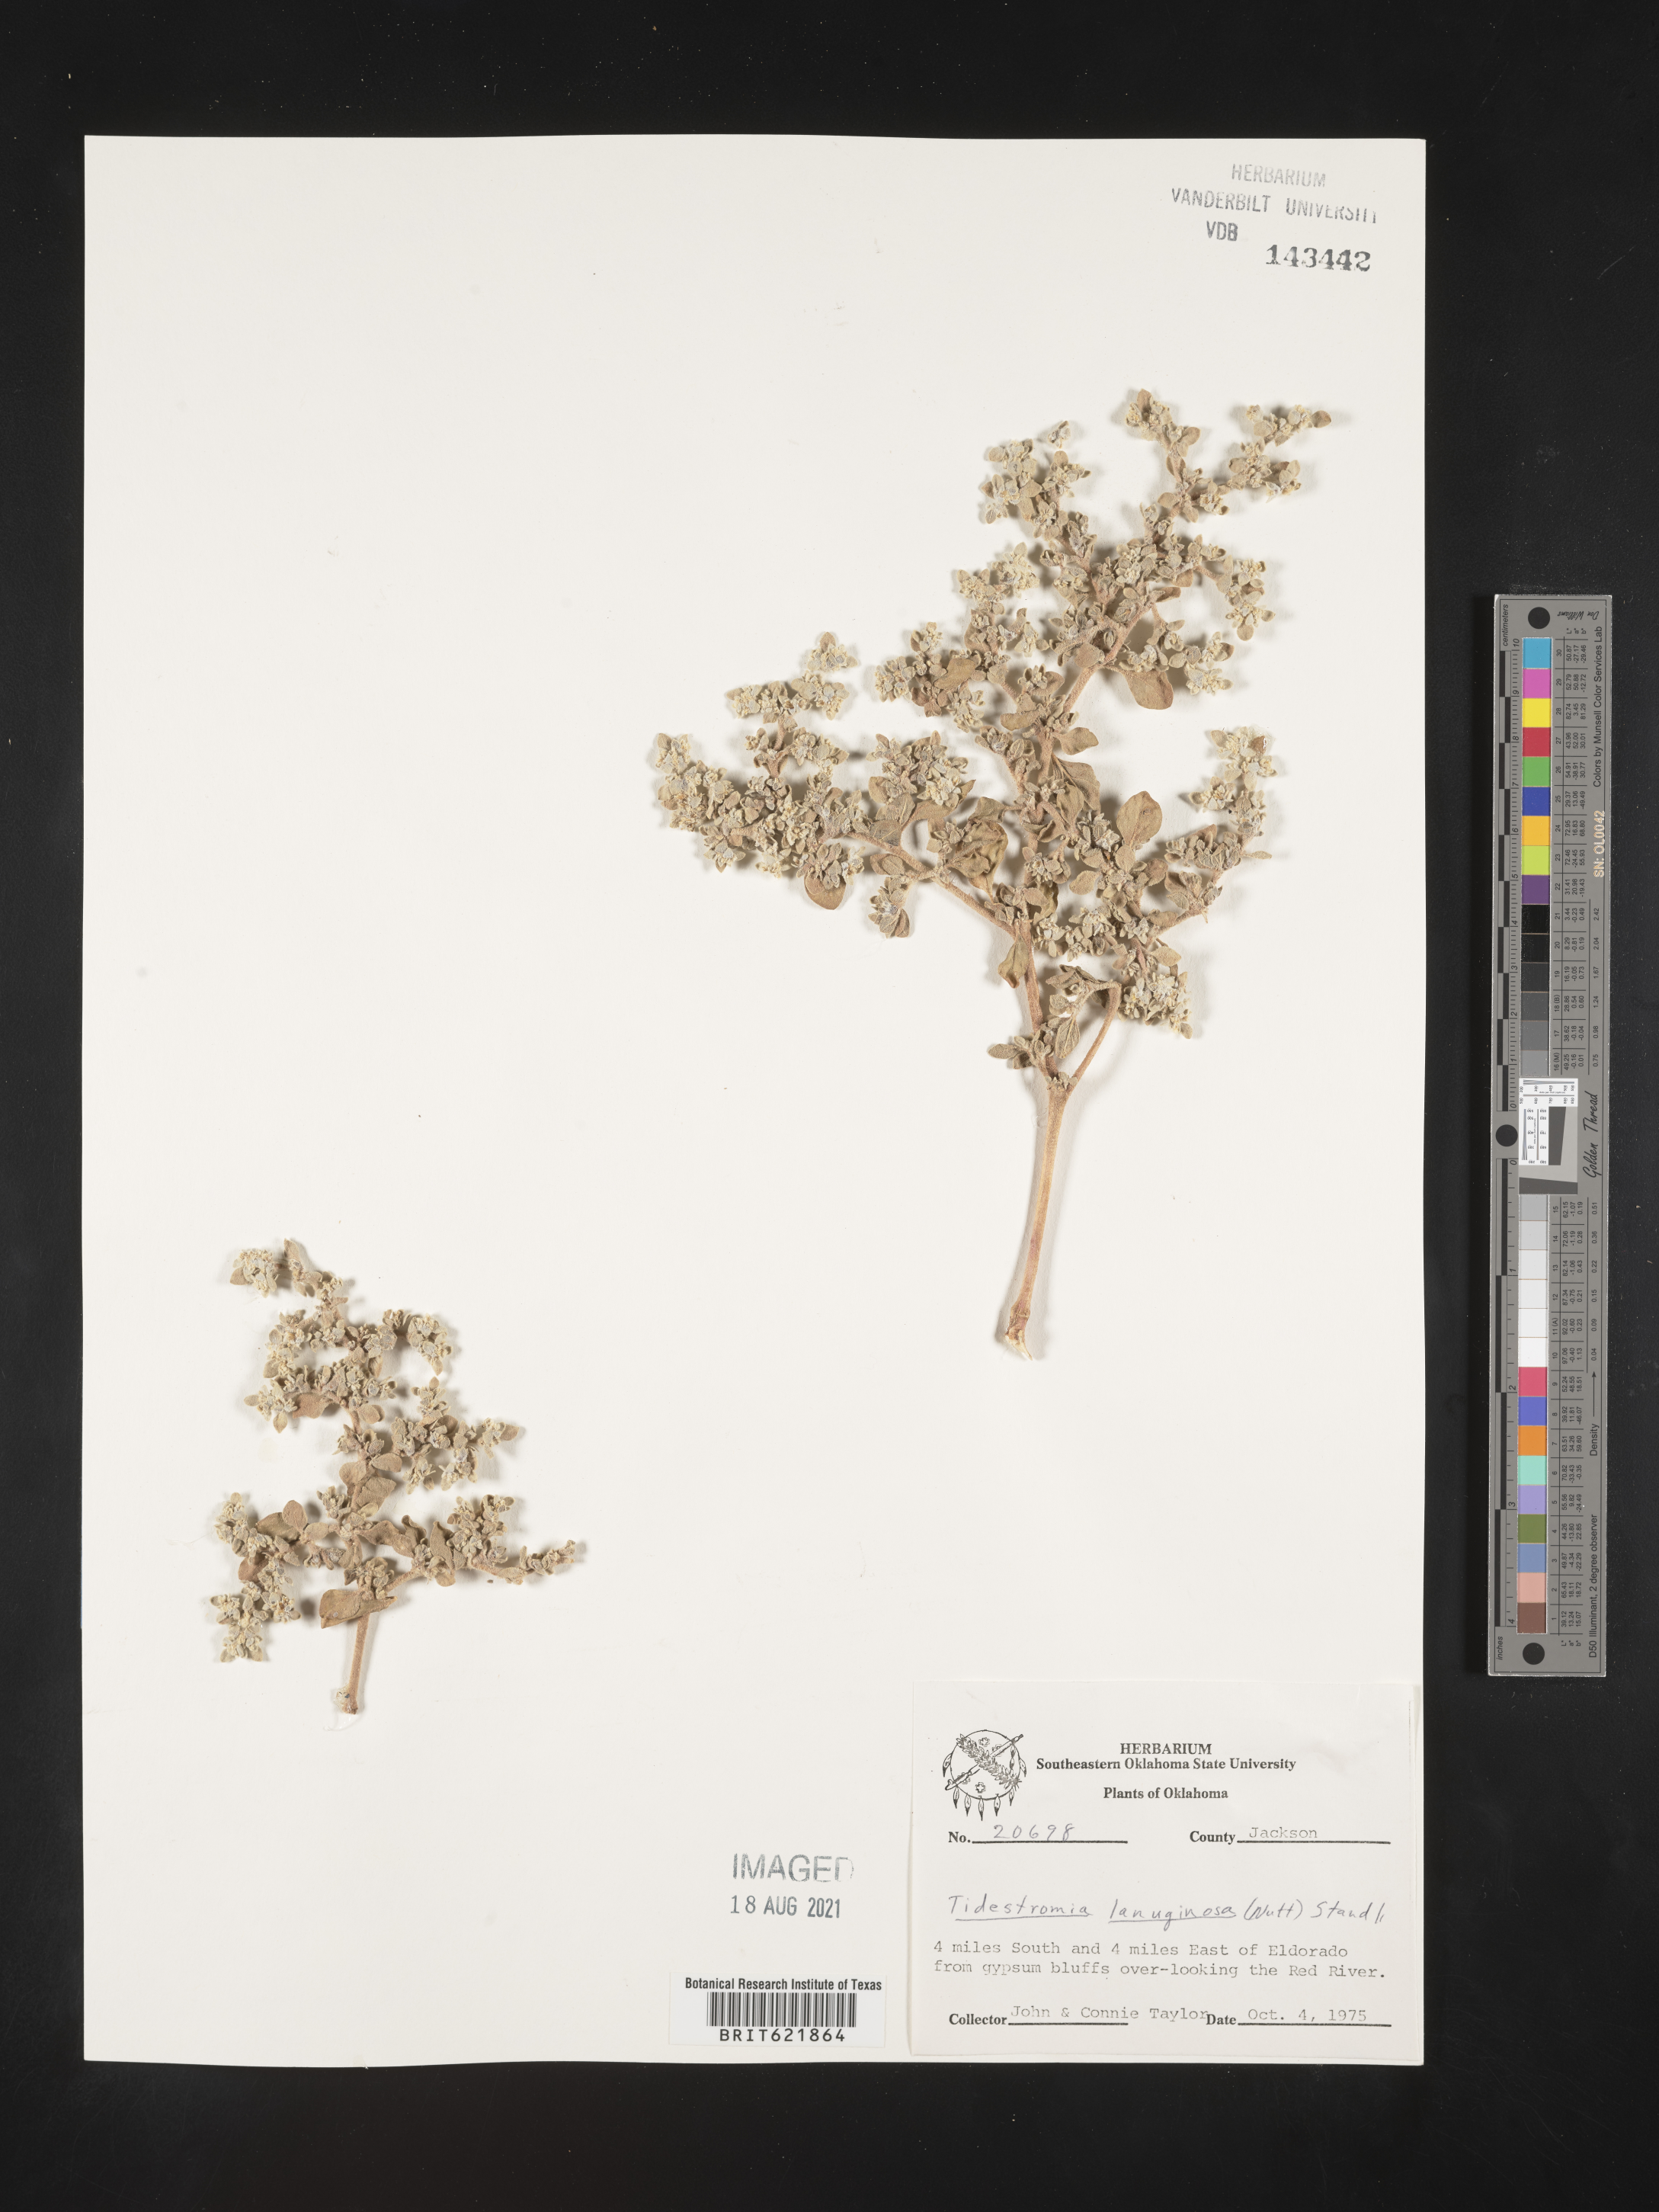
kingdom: Plantae
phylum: Tracheophyta
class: Magnoliopsida
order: Caryophyllales
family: Amaranthaceae
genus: Tidestromia
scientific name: Tidestromia lanuginosa
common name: Woolly tidestromia
